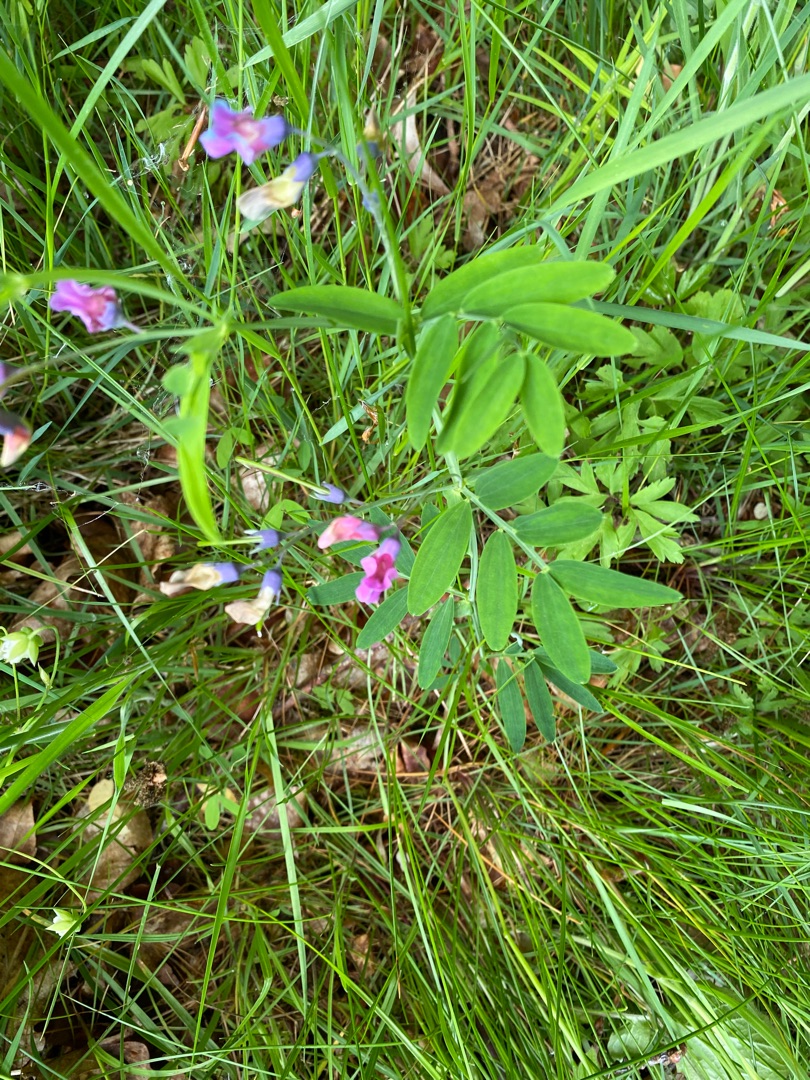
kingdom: Plantae
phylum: Tracheophyta
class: Magnoliopsida
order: Fabales
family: Fabaceae
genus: Lathyrus
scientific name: Lathyrus linifolius
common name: Krat-fladbælg
